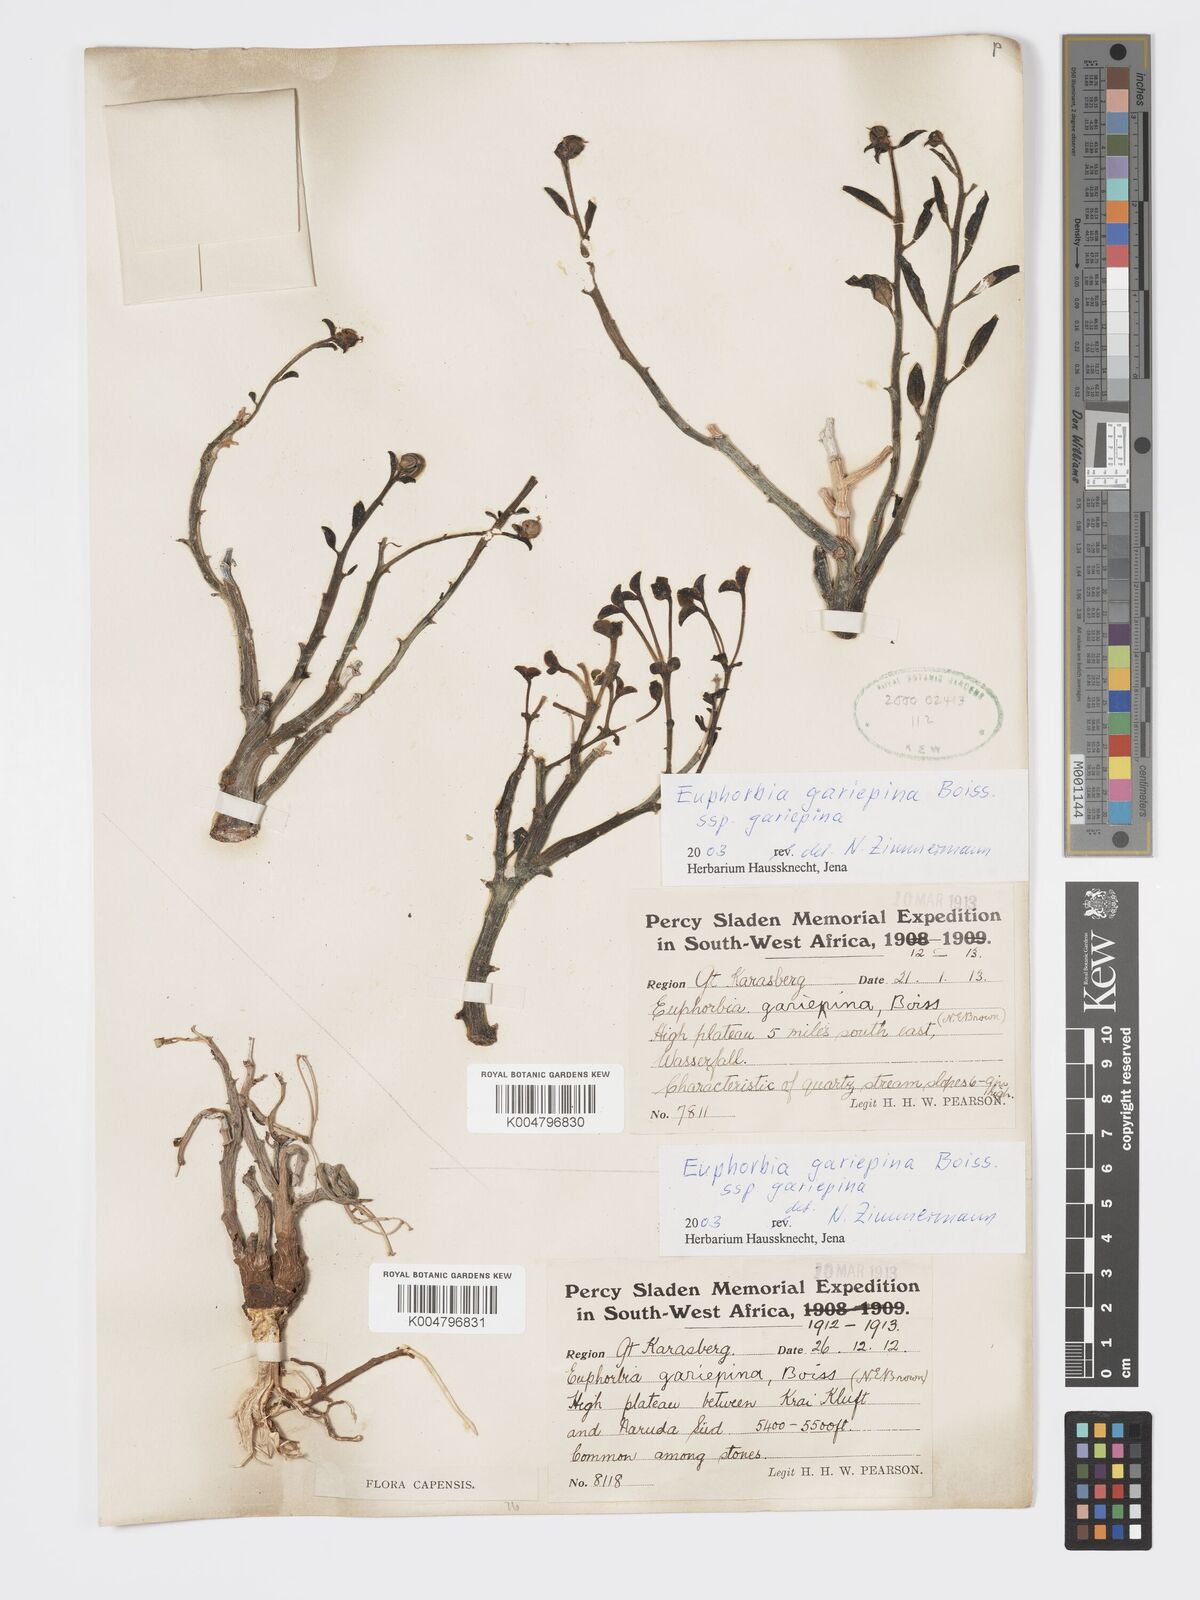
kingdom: Plantae
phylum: Tracheophyta
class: Magnoliopsida
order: Malpighiales
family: Euphorbiaceae
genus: Euphorbia
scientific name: Euphorbia gariepina
